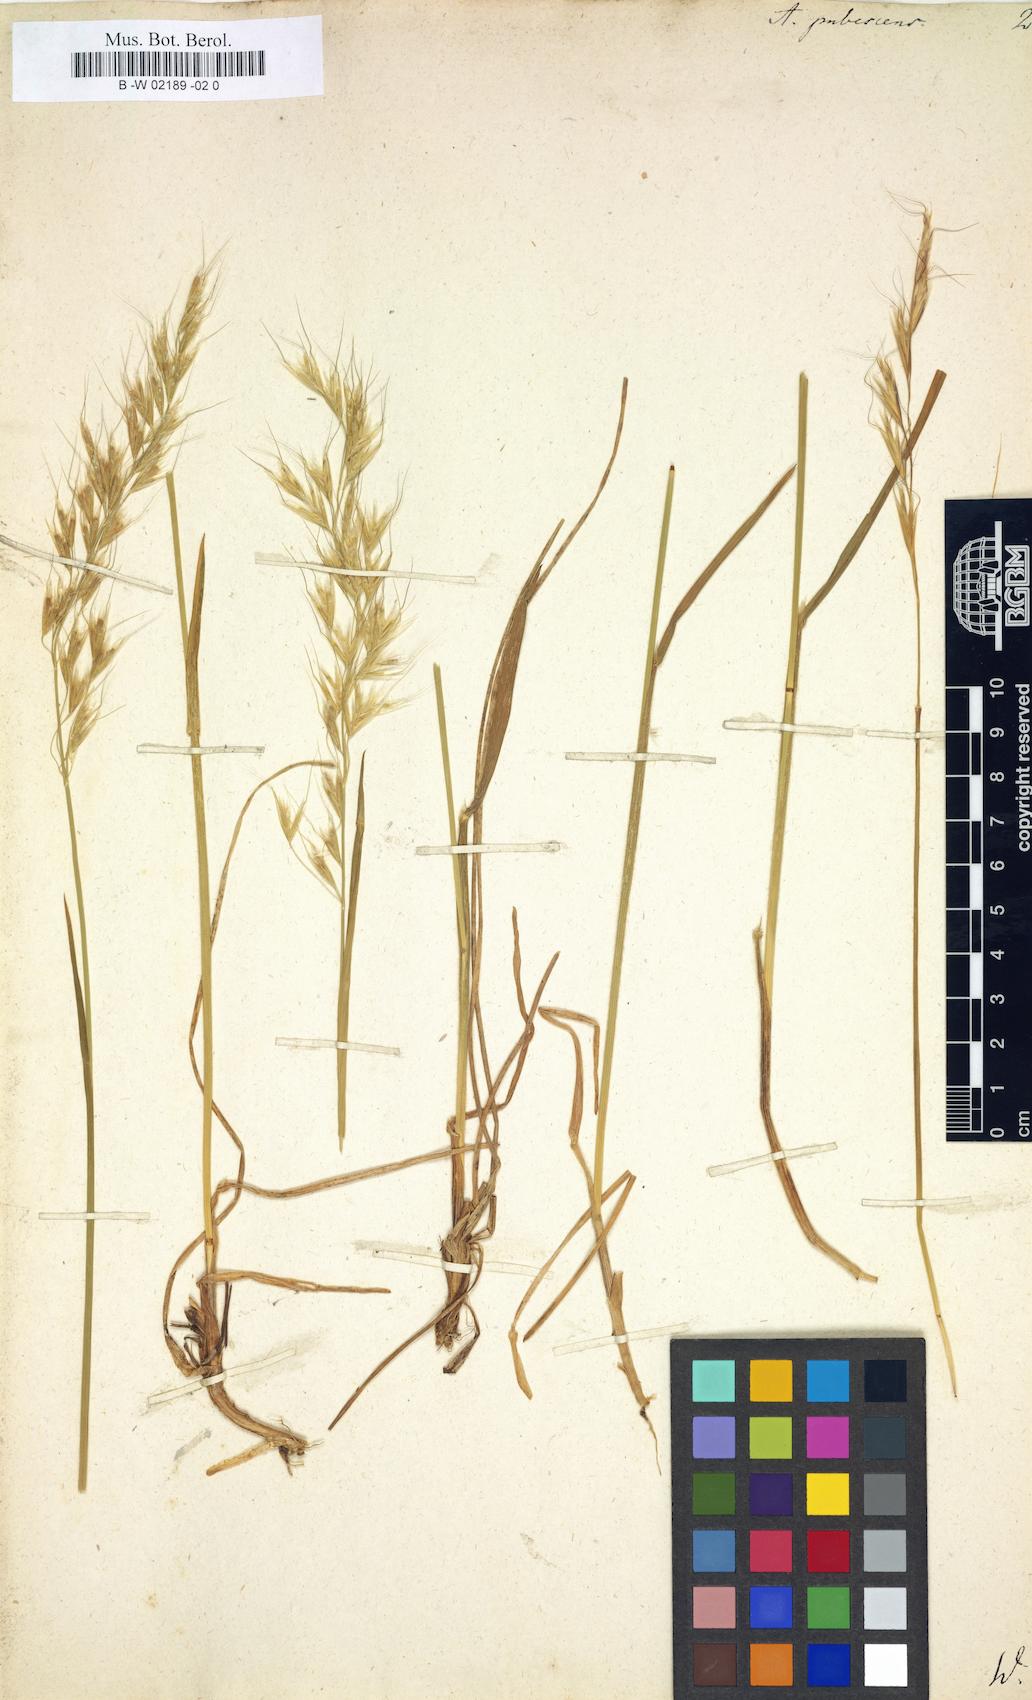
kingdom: Plantae
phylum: Tracheophyta
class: Liliopsida
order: Poales
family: Poaceae
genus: Avenula
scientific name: Avenula pubescens
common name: Downy alpine oatgrass
